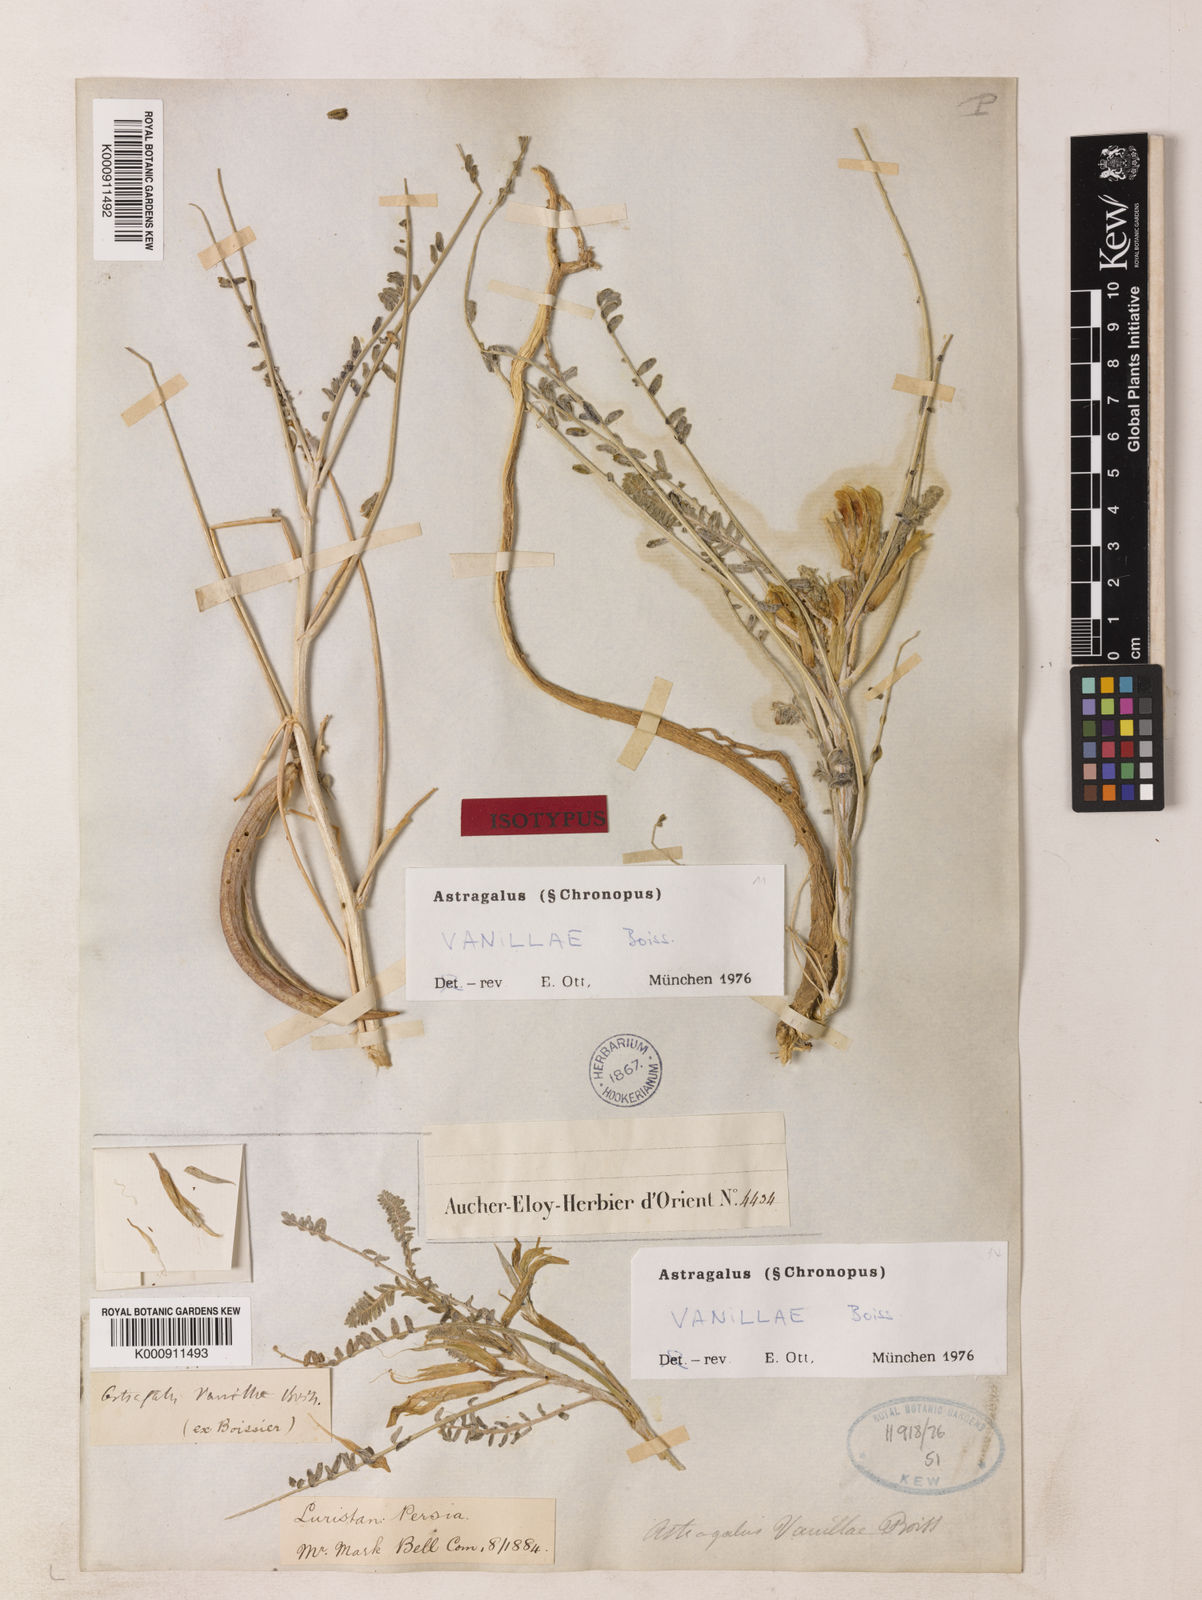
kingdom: Plantae
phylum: Tracheophyta
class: Magnoliopsida
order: Fabales
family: Fabaceae
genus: Astragalus
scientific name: Astragalus vanillae
